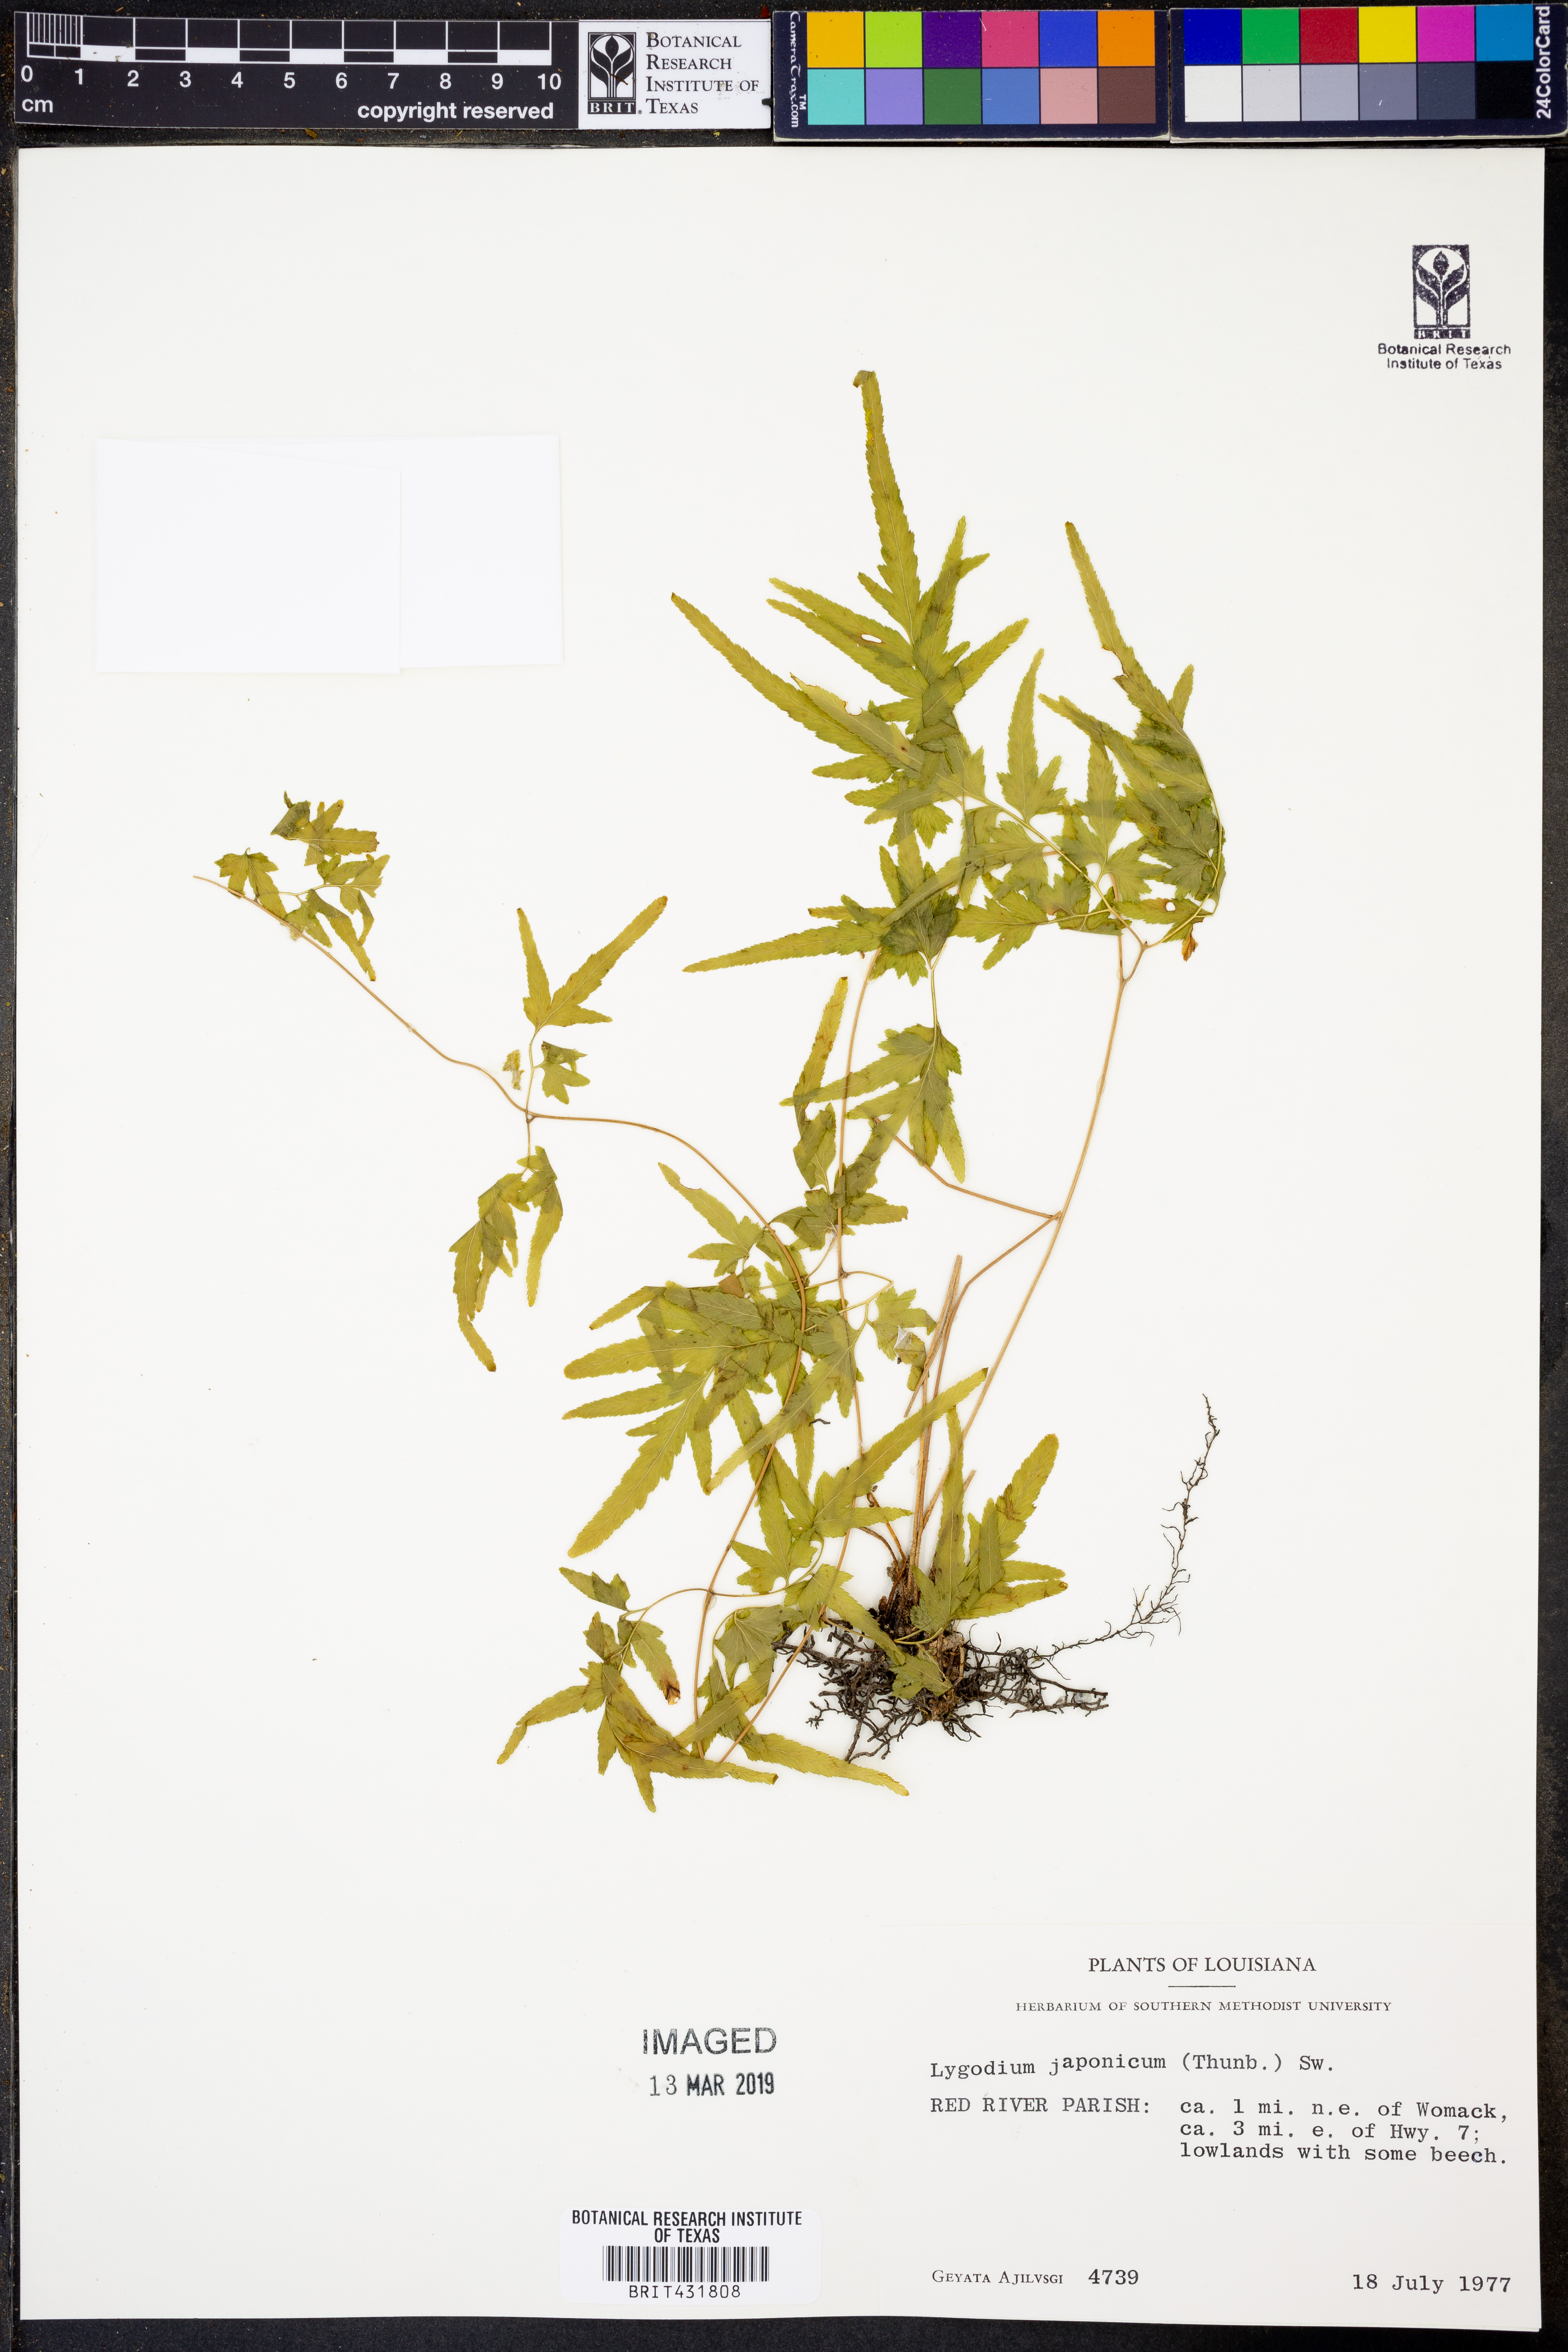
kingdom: Plantae
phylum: Tracheophyta
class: Polypodiopsida
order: Schizaeales
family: Lygodiaceae
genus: Lygodium
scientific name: Lygodium japonicum
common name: Japanese climbing fern
